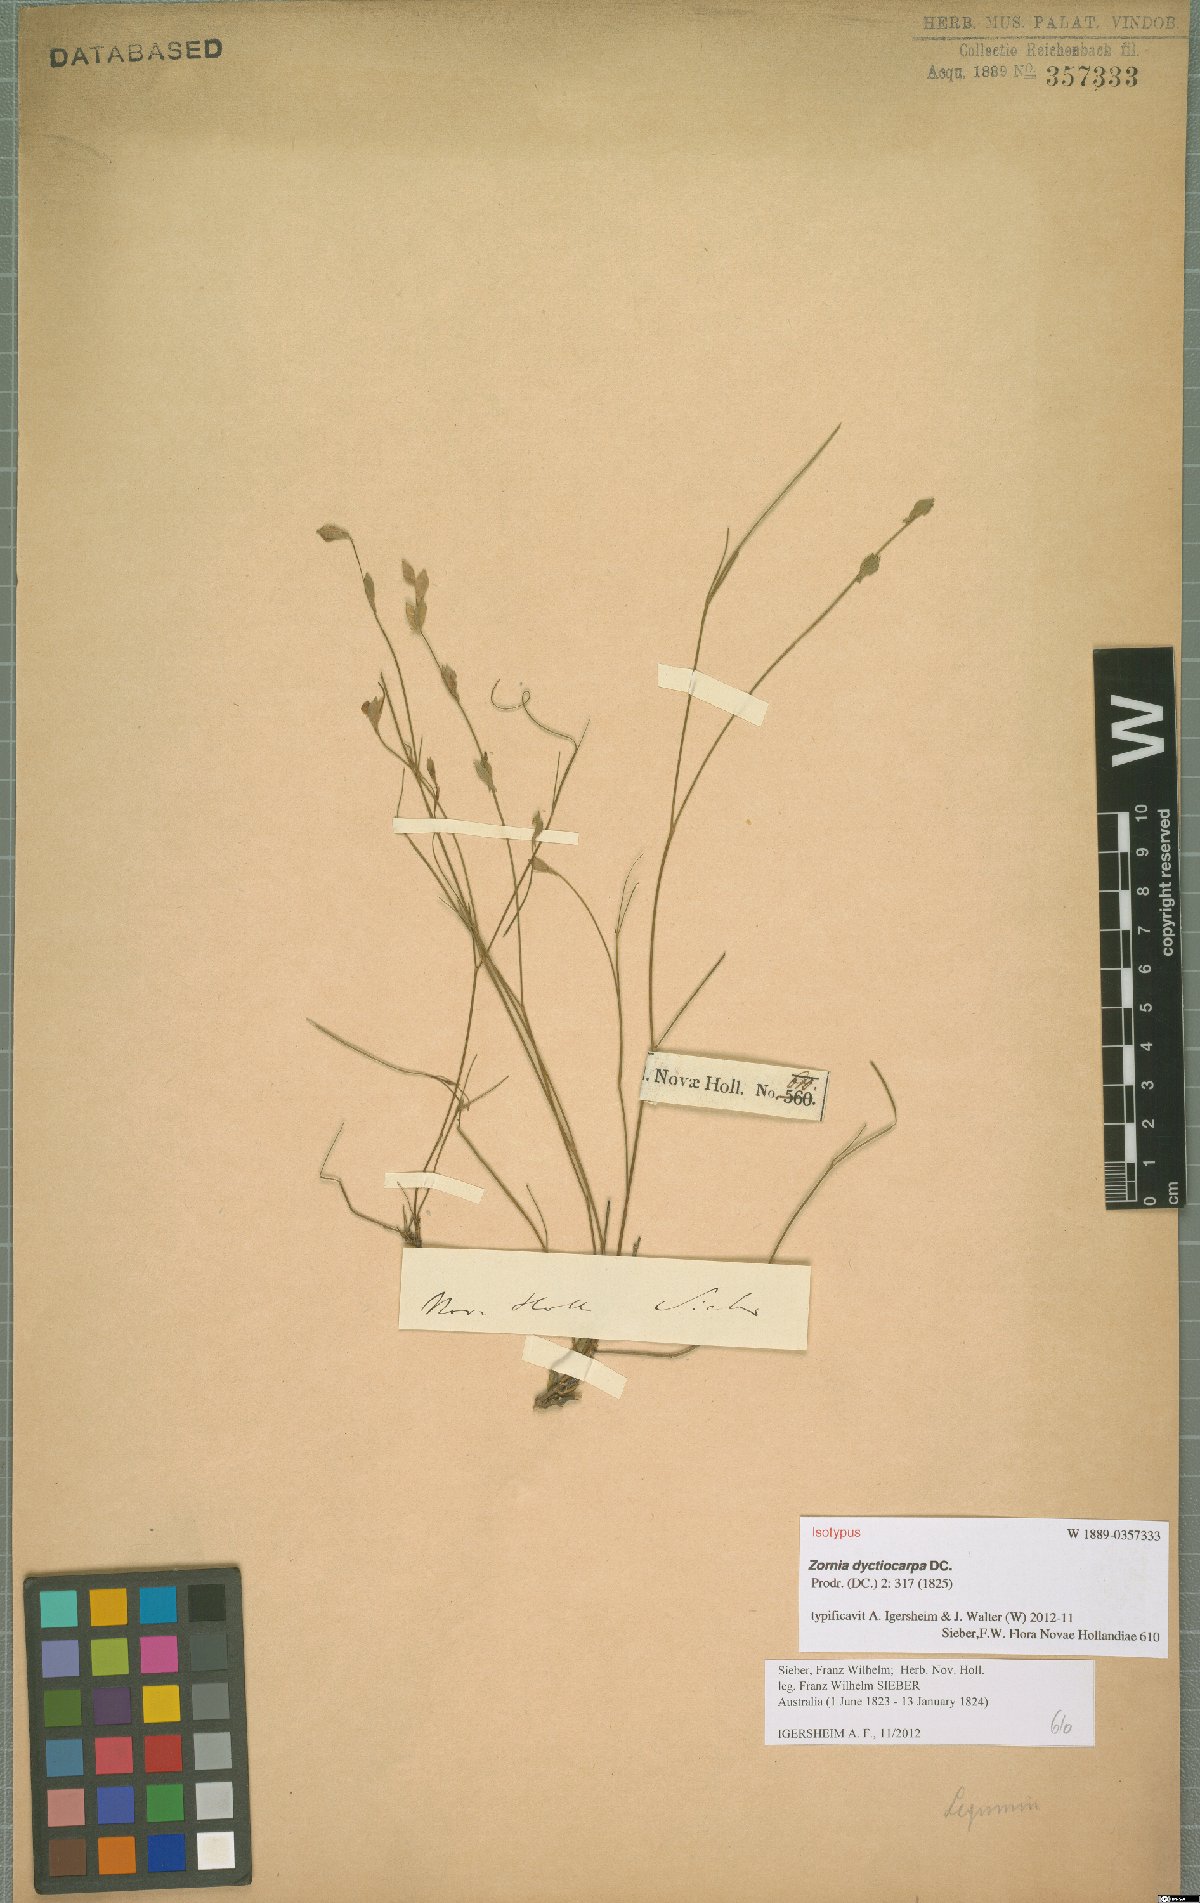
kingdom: Plantae
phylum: Tracheophyta
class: Magnoliopsida
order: Fabales
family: Fabaceae
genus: Zornia
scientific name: Zornia dyctiocarpa
